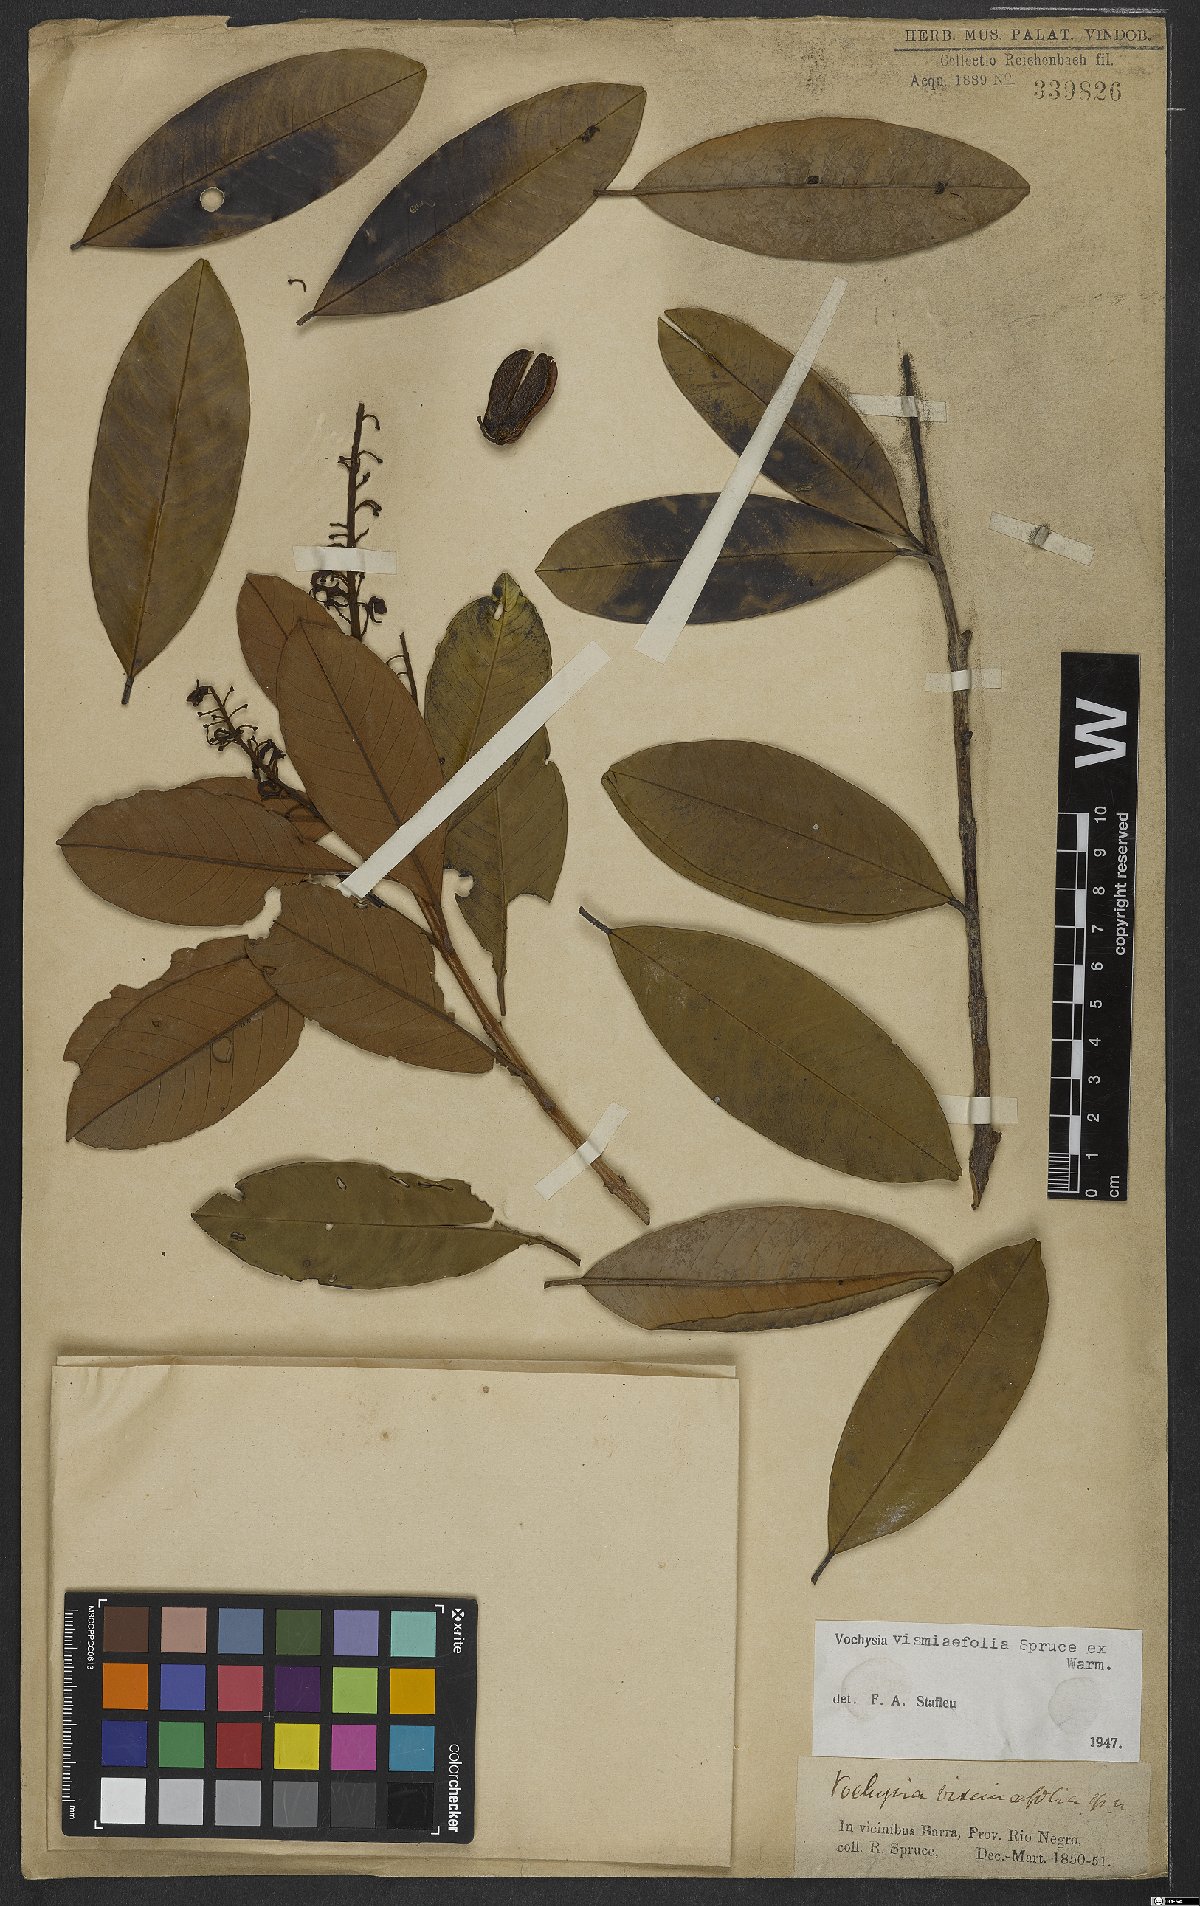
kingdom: Plantae
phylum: Tracheophyta
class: Magnoliopsida
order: Myrtales
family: Vochysiaceae
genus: Vochysia
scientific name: Vochysia vismiifolia
